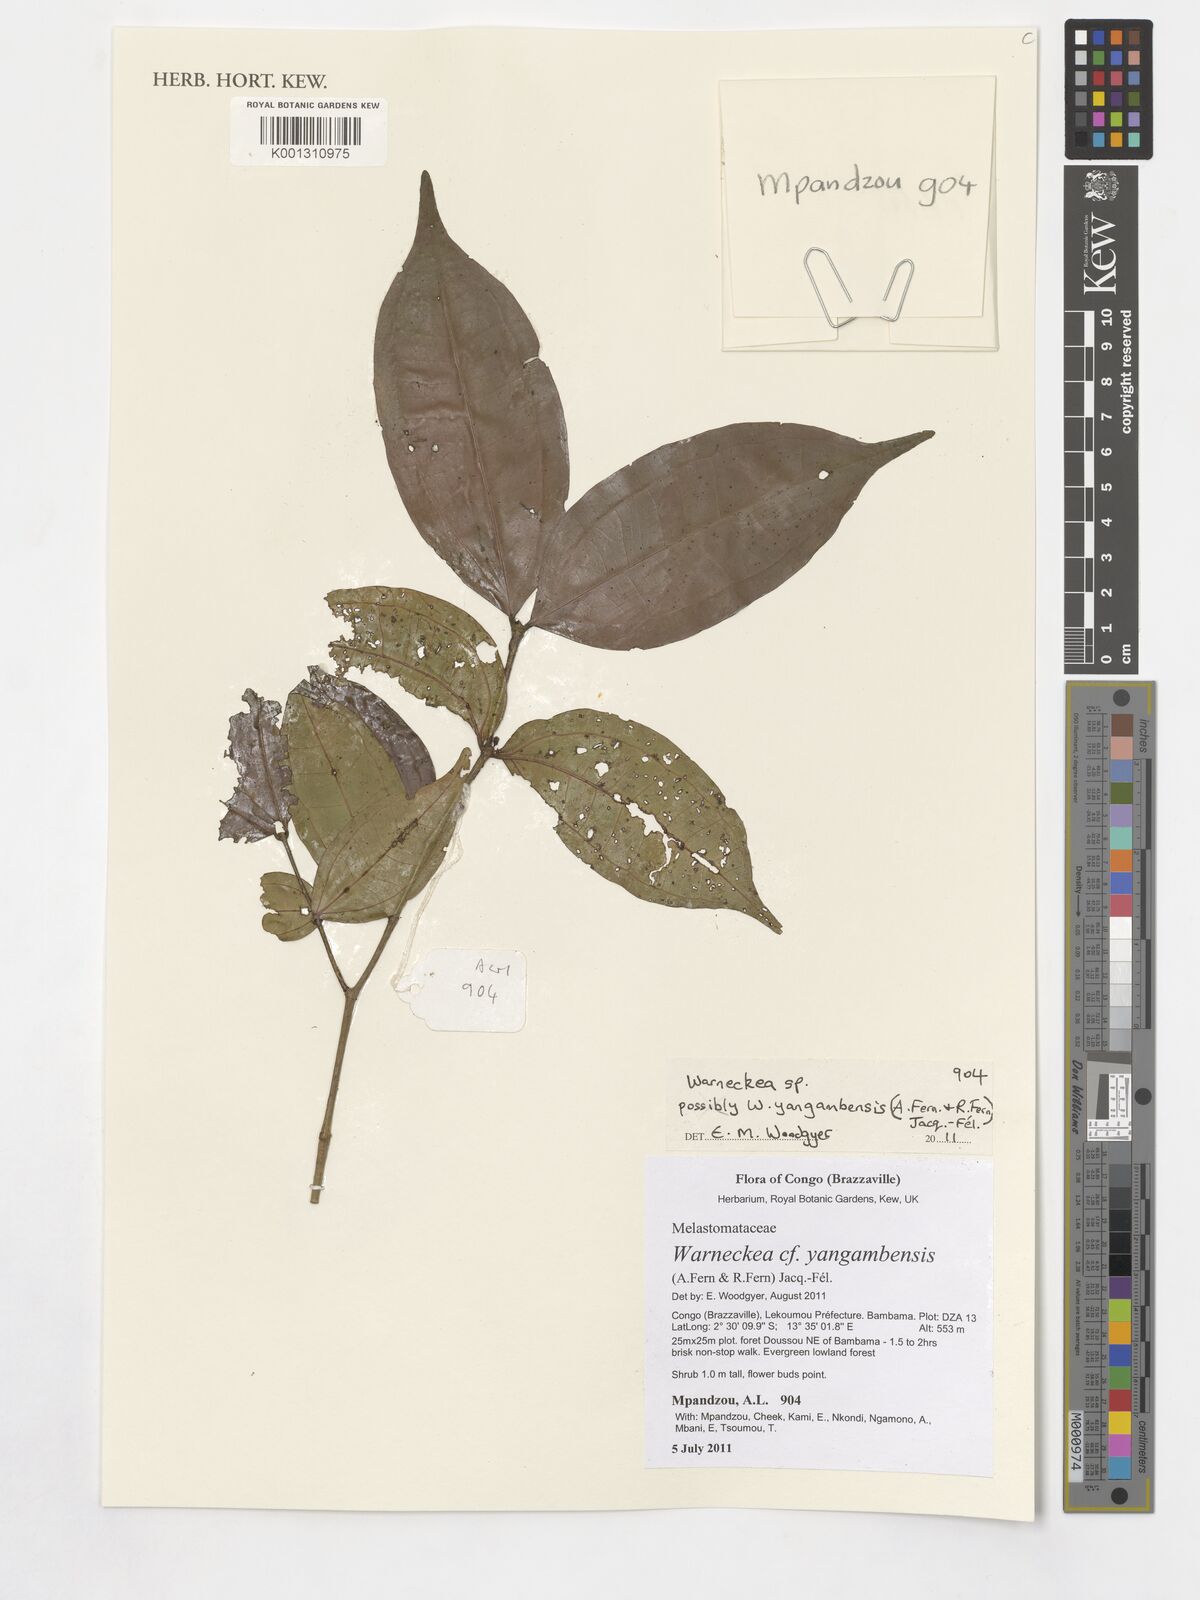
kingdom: Plantae
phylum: Tracheophyta
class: Magnoliopsida
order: Myrtales
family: Melastomataceae
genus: Warneckea
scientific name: Warneckea yangambensis
